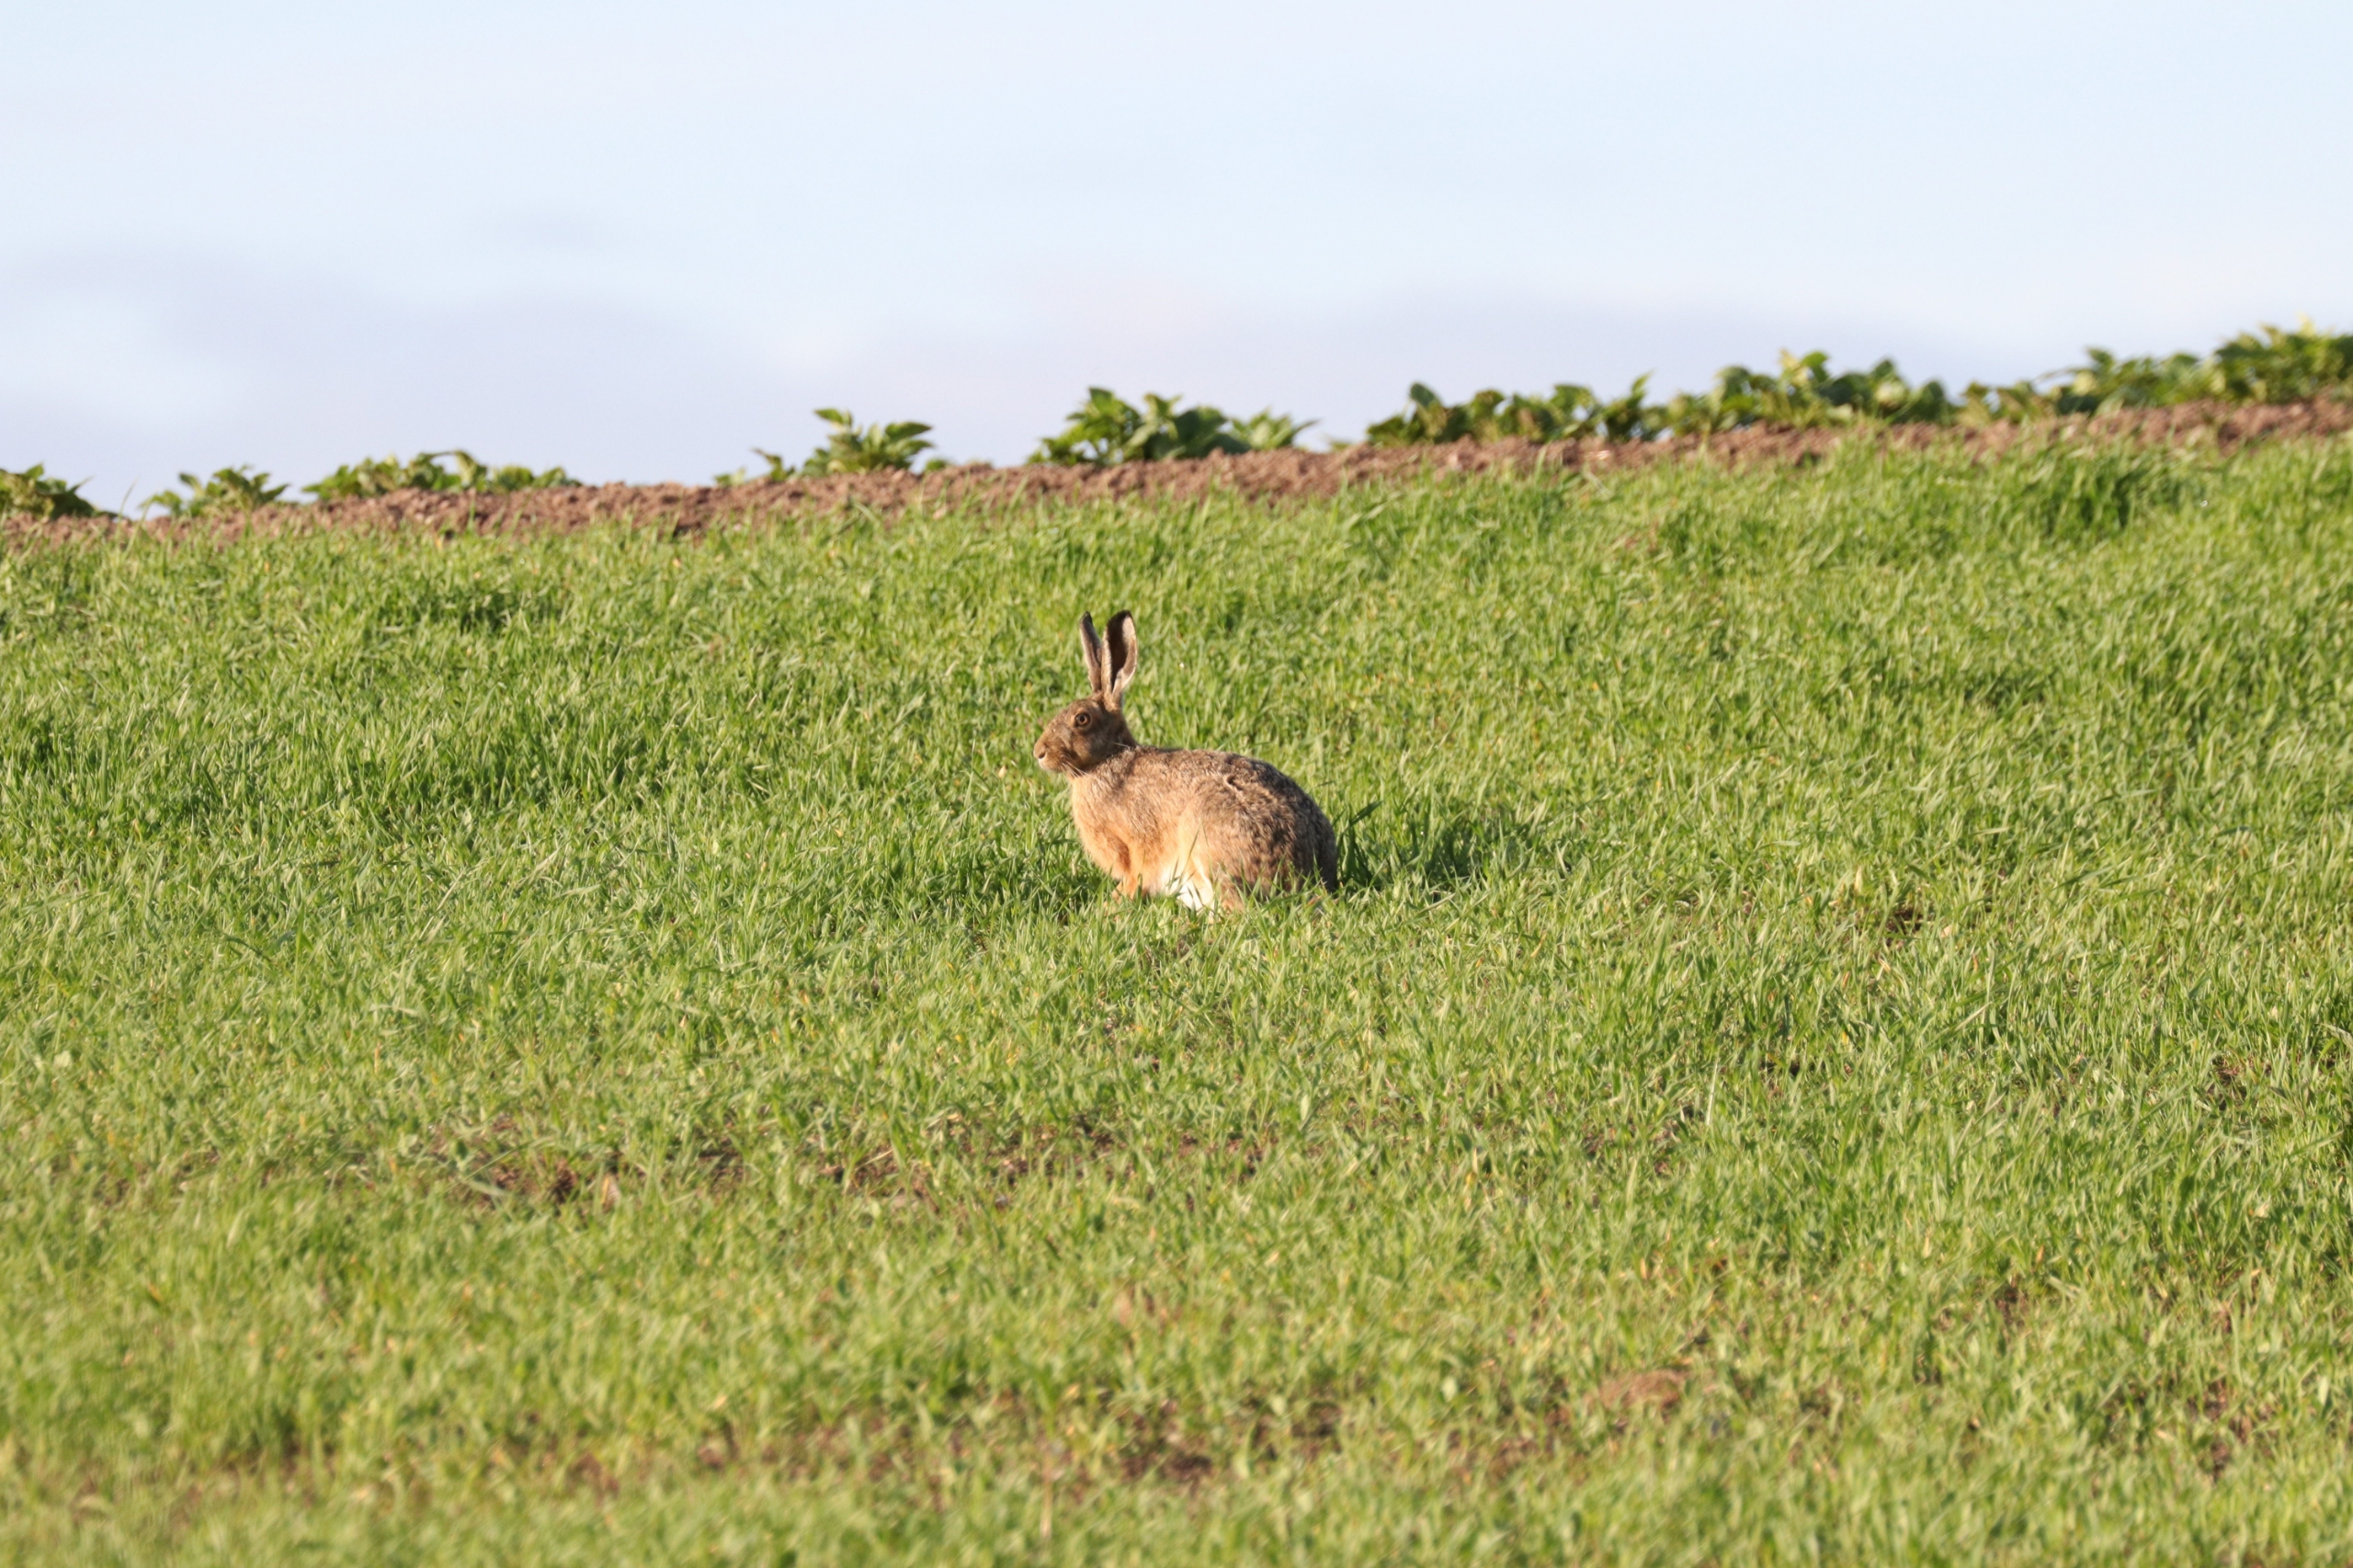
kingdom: Animalia
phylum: Chordata
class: Mammalia
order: Lagomorpha
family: Leporidae
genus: Lepus
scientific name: Lepus europaeus
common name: Hare
